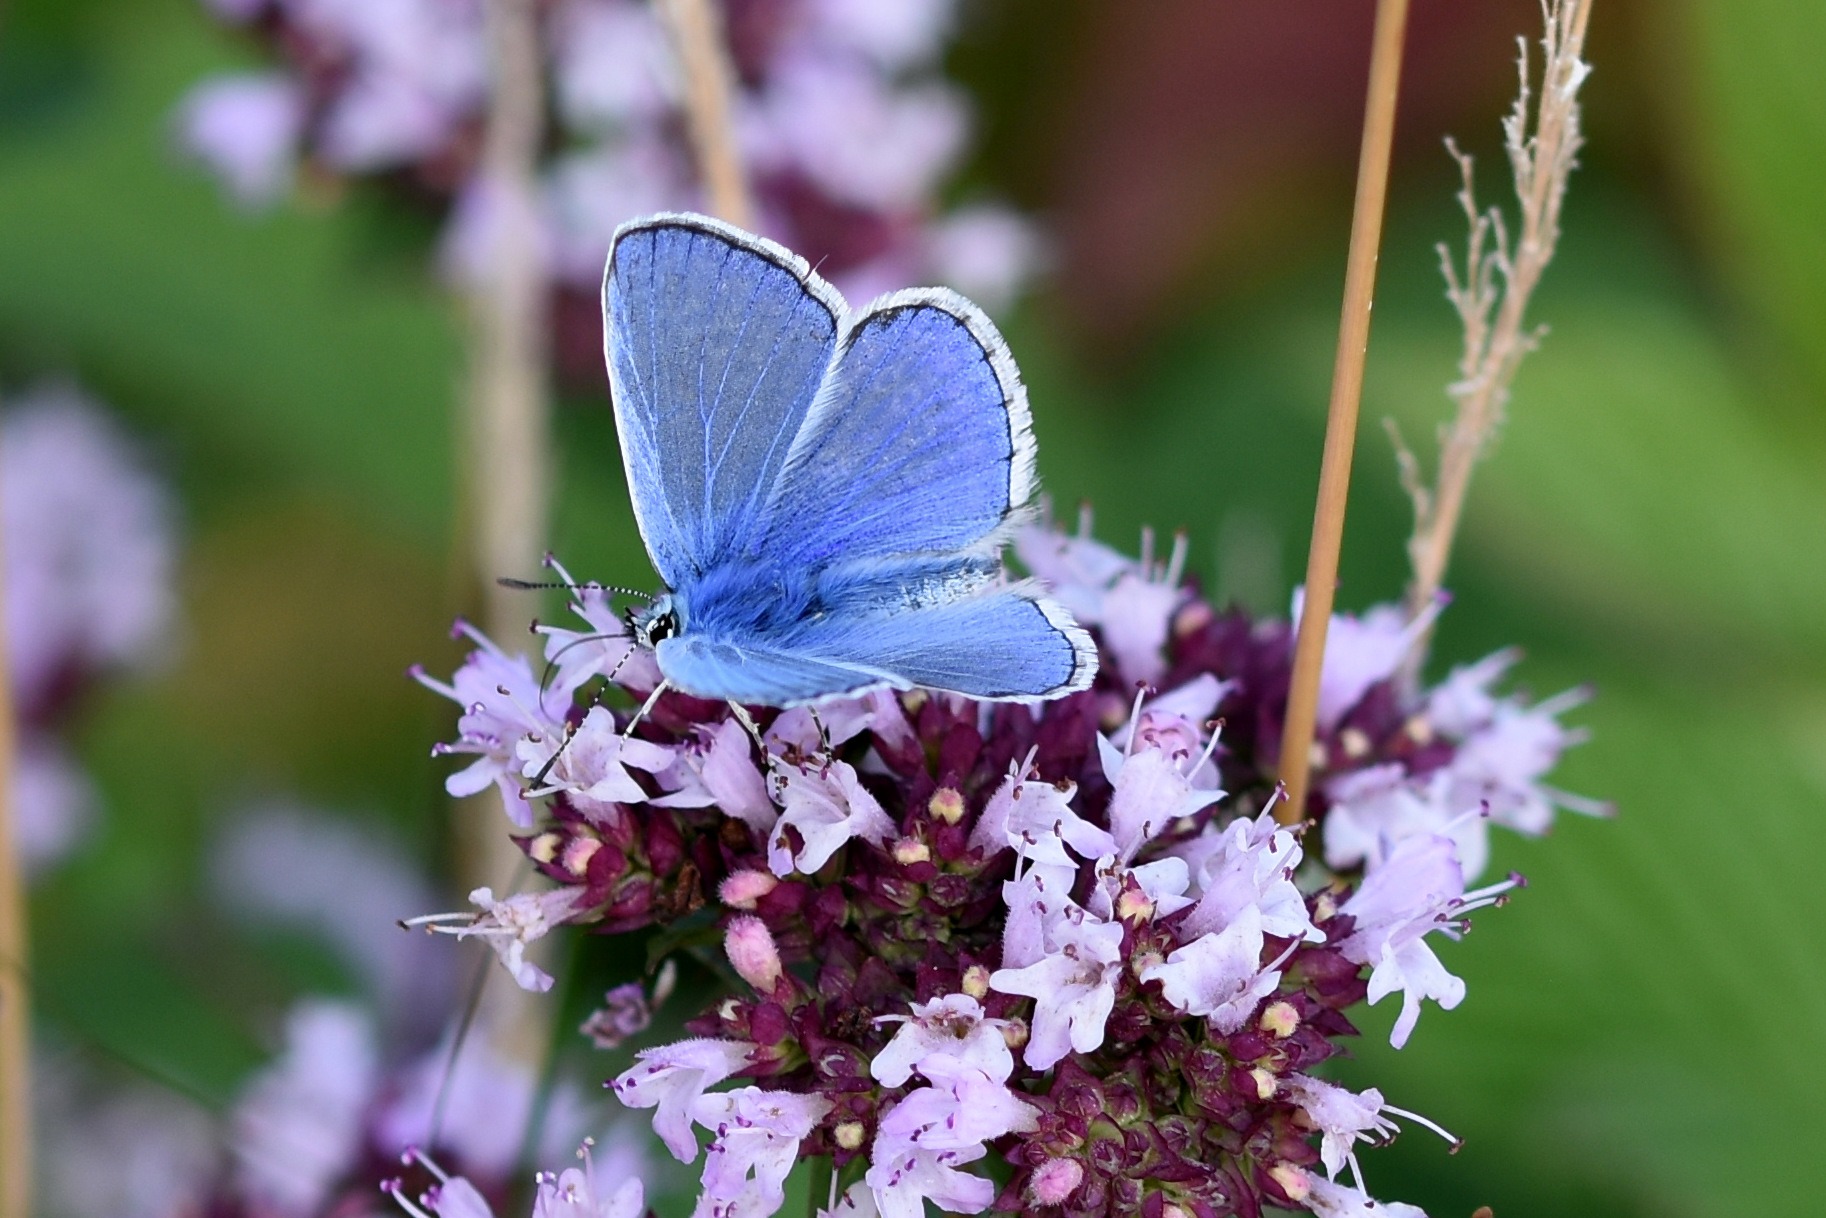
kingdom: Animalia
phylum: Arthropoda
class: Insecta
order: Lepidoptera
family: Lycaenidae
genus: Polyommatus
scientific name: Polyommatus icarus
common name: Almindelig blåfugl
